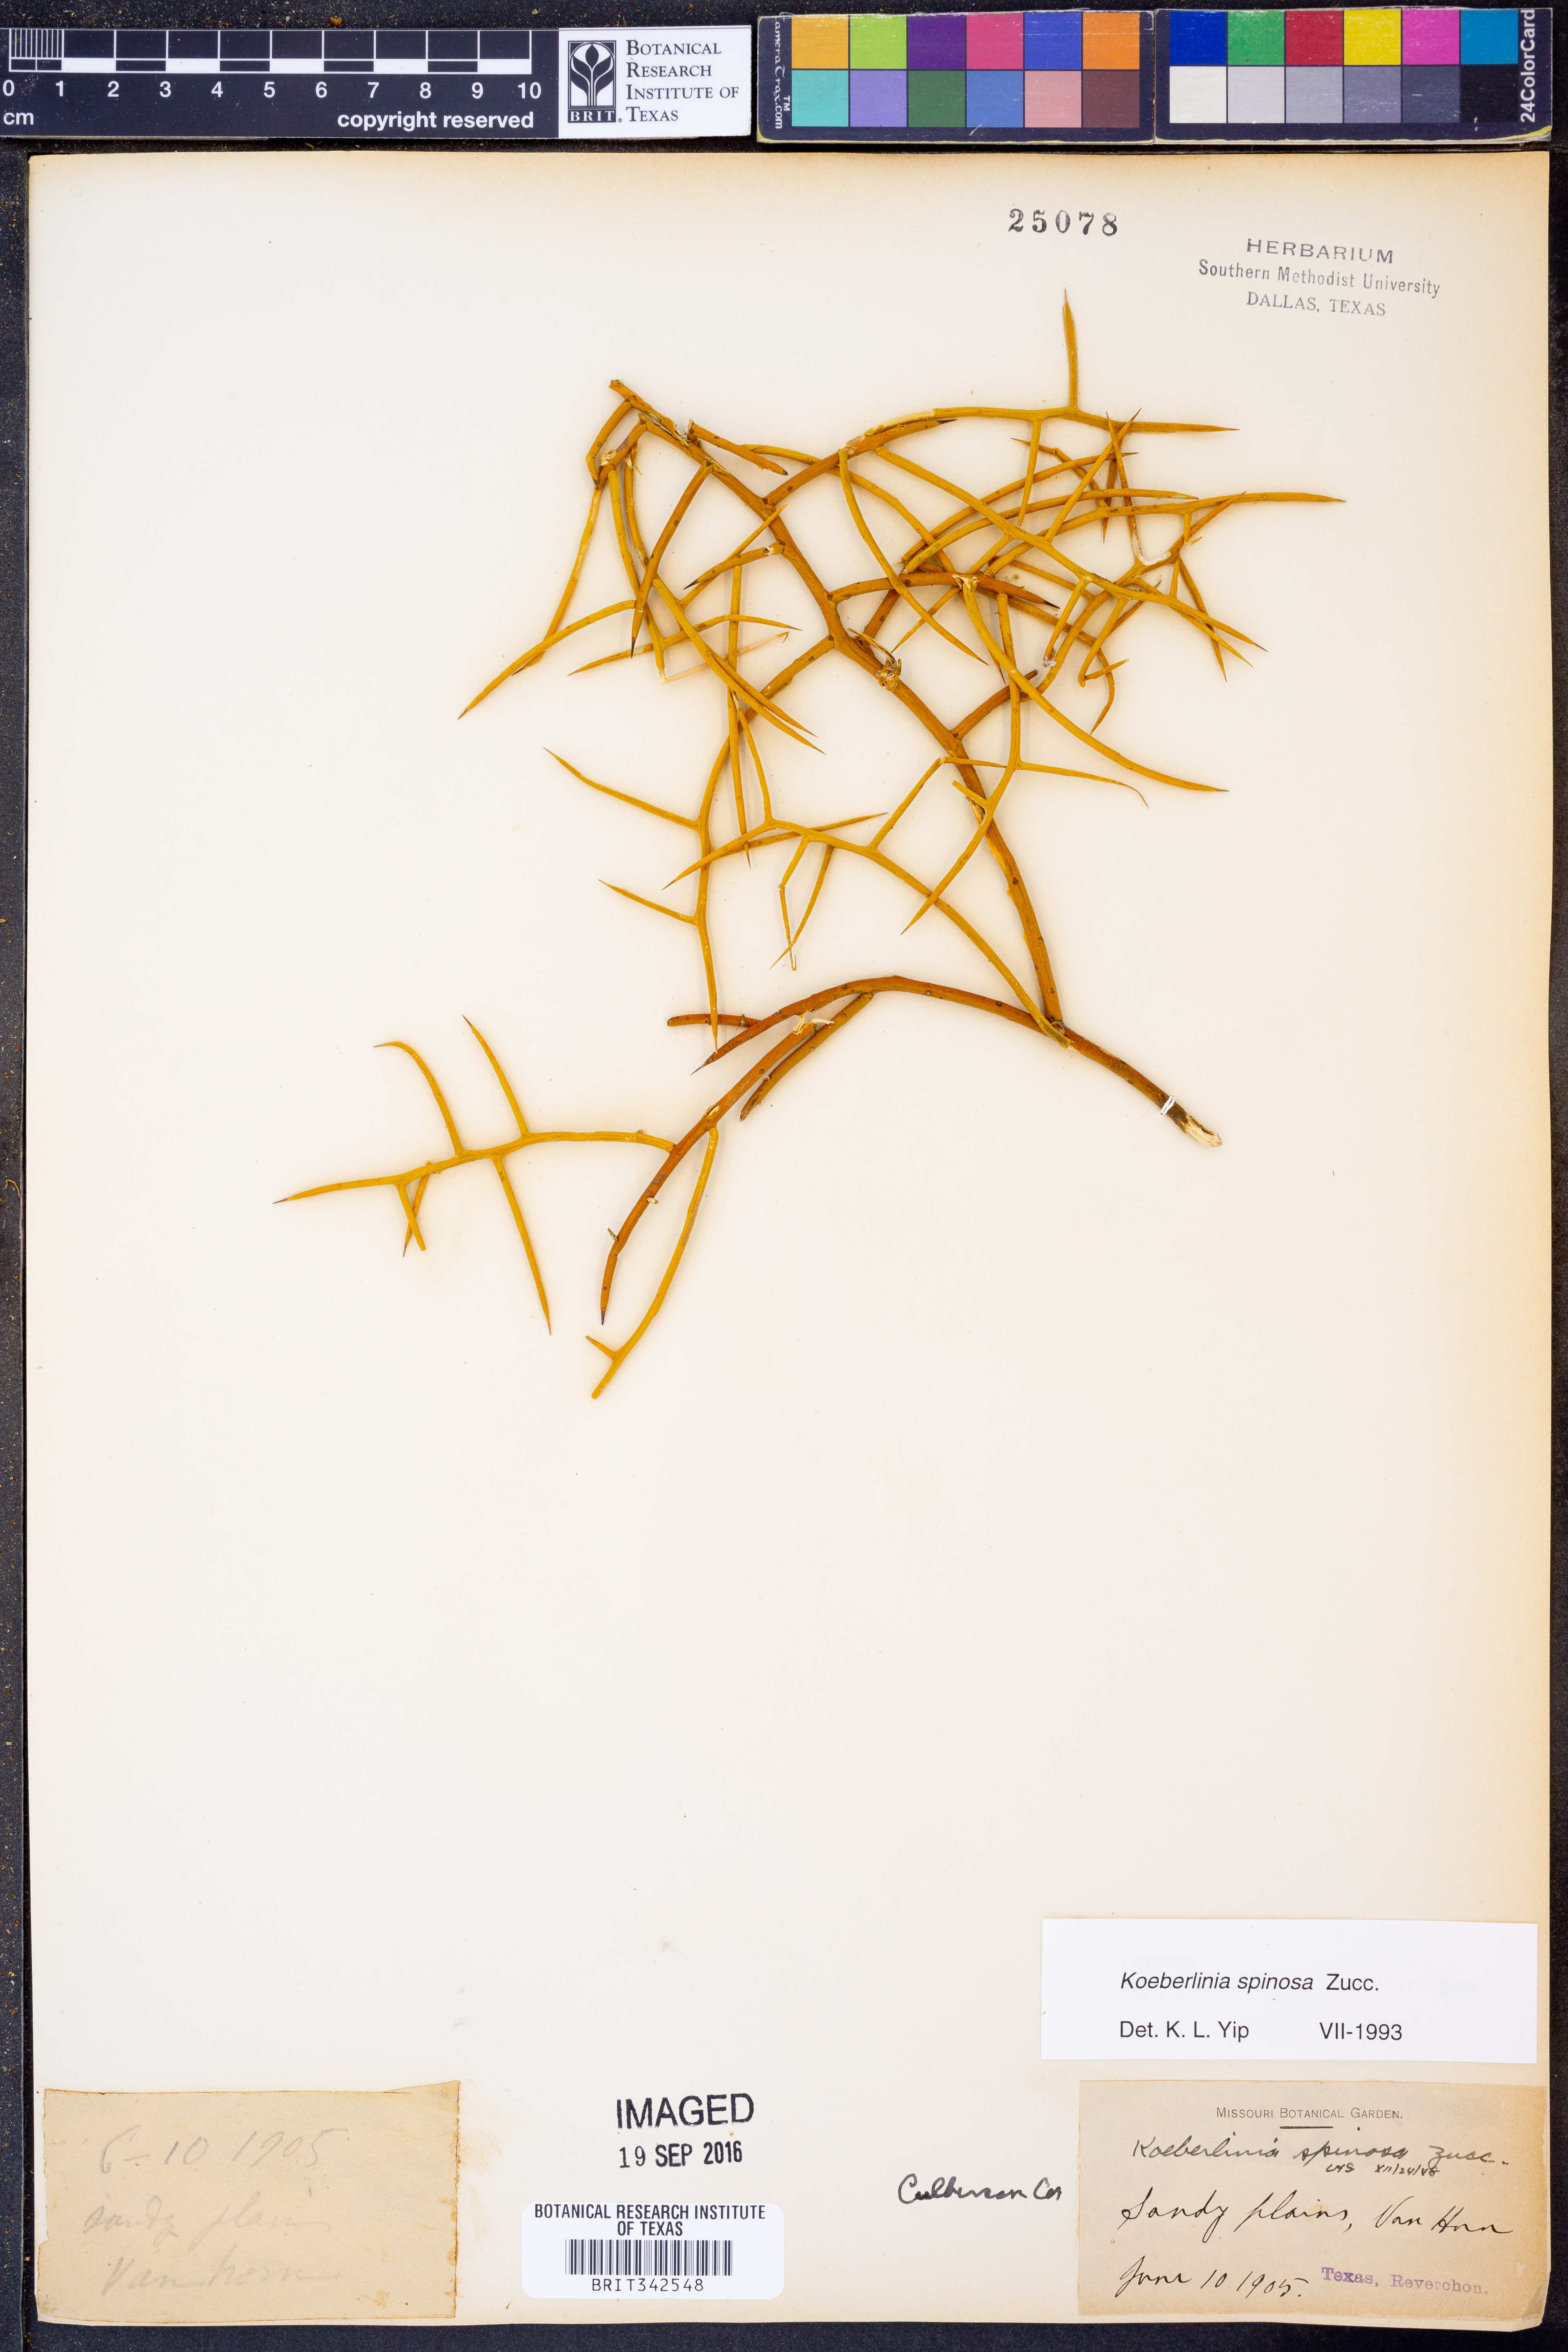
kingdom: Plantae
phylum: Tracheophyta
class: Magnoliopsida
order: Brassicales
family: Koeberliniaceae
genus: Koeberlinia
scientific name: Koeberlinia spinosa
